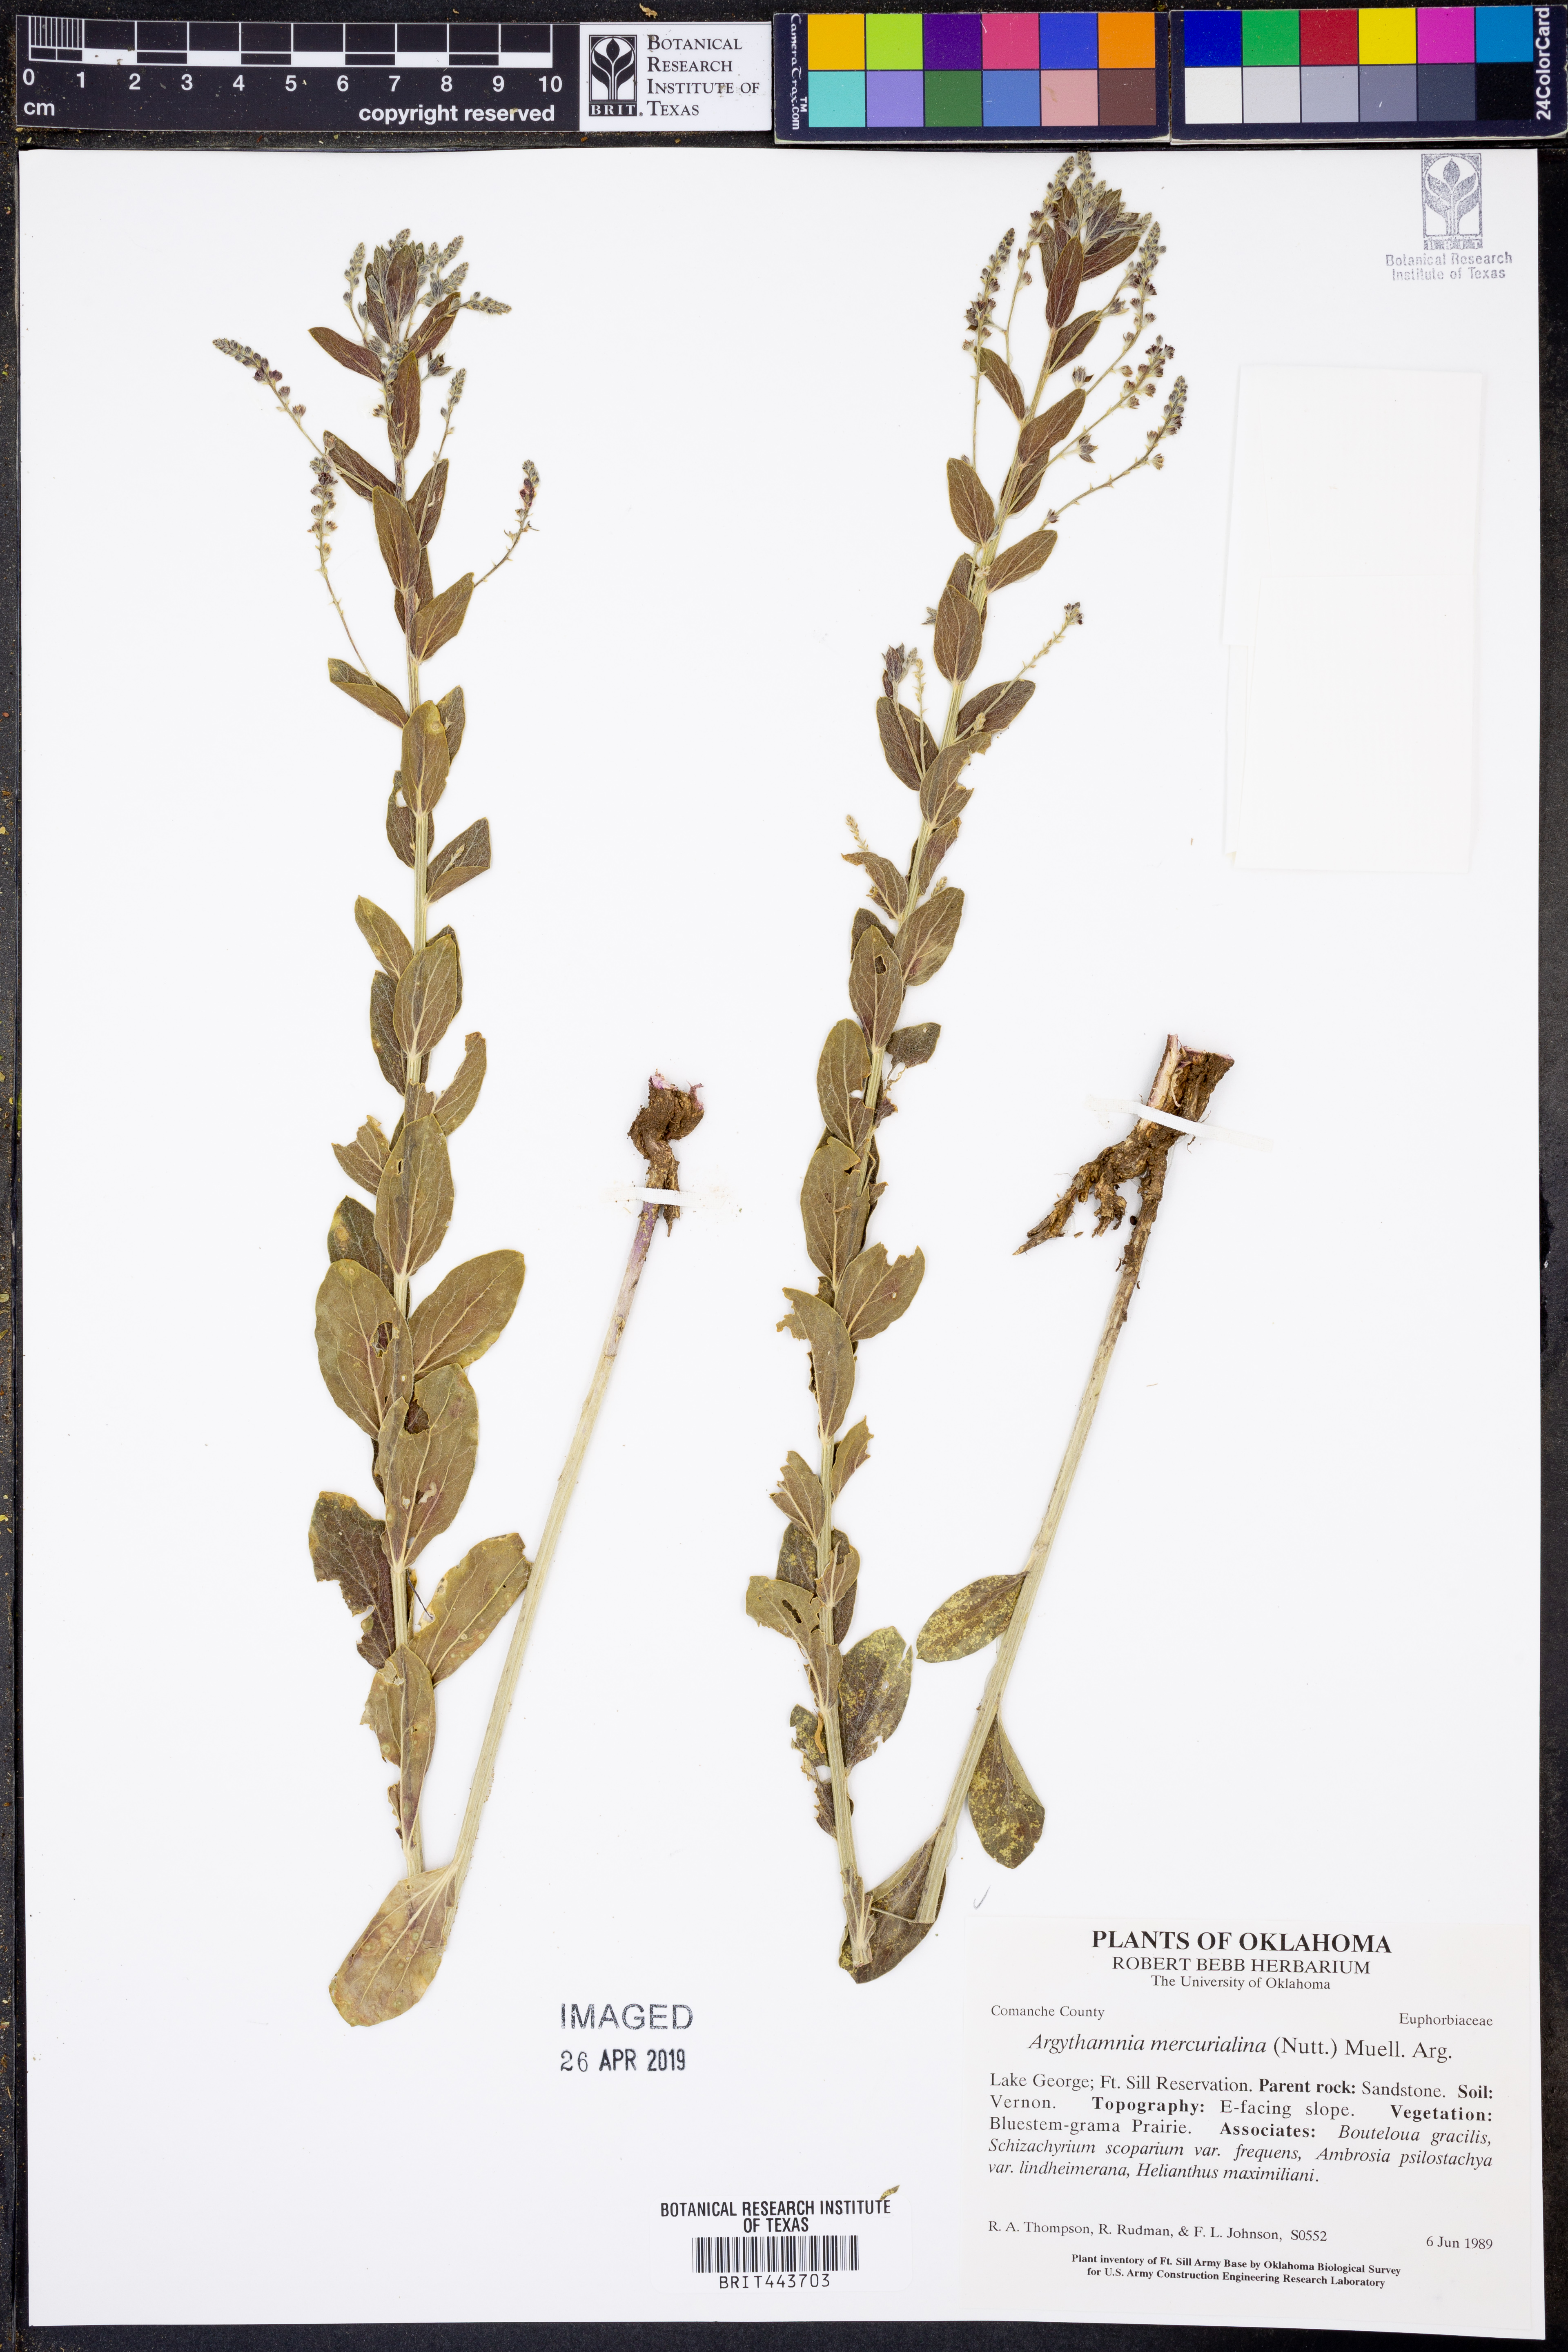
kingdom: Plantae
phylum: Tracheophyta
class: Magnoliopsida
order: Malpighiales
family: Euphorbiaceae
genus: Ditaxis
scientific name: Ditaxis mercurialina
